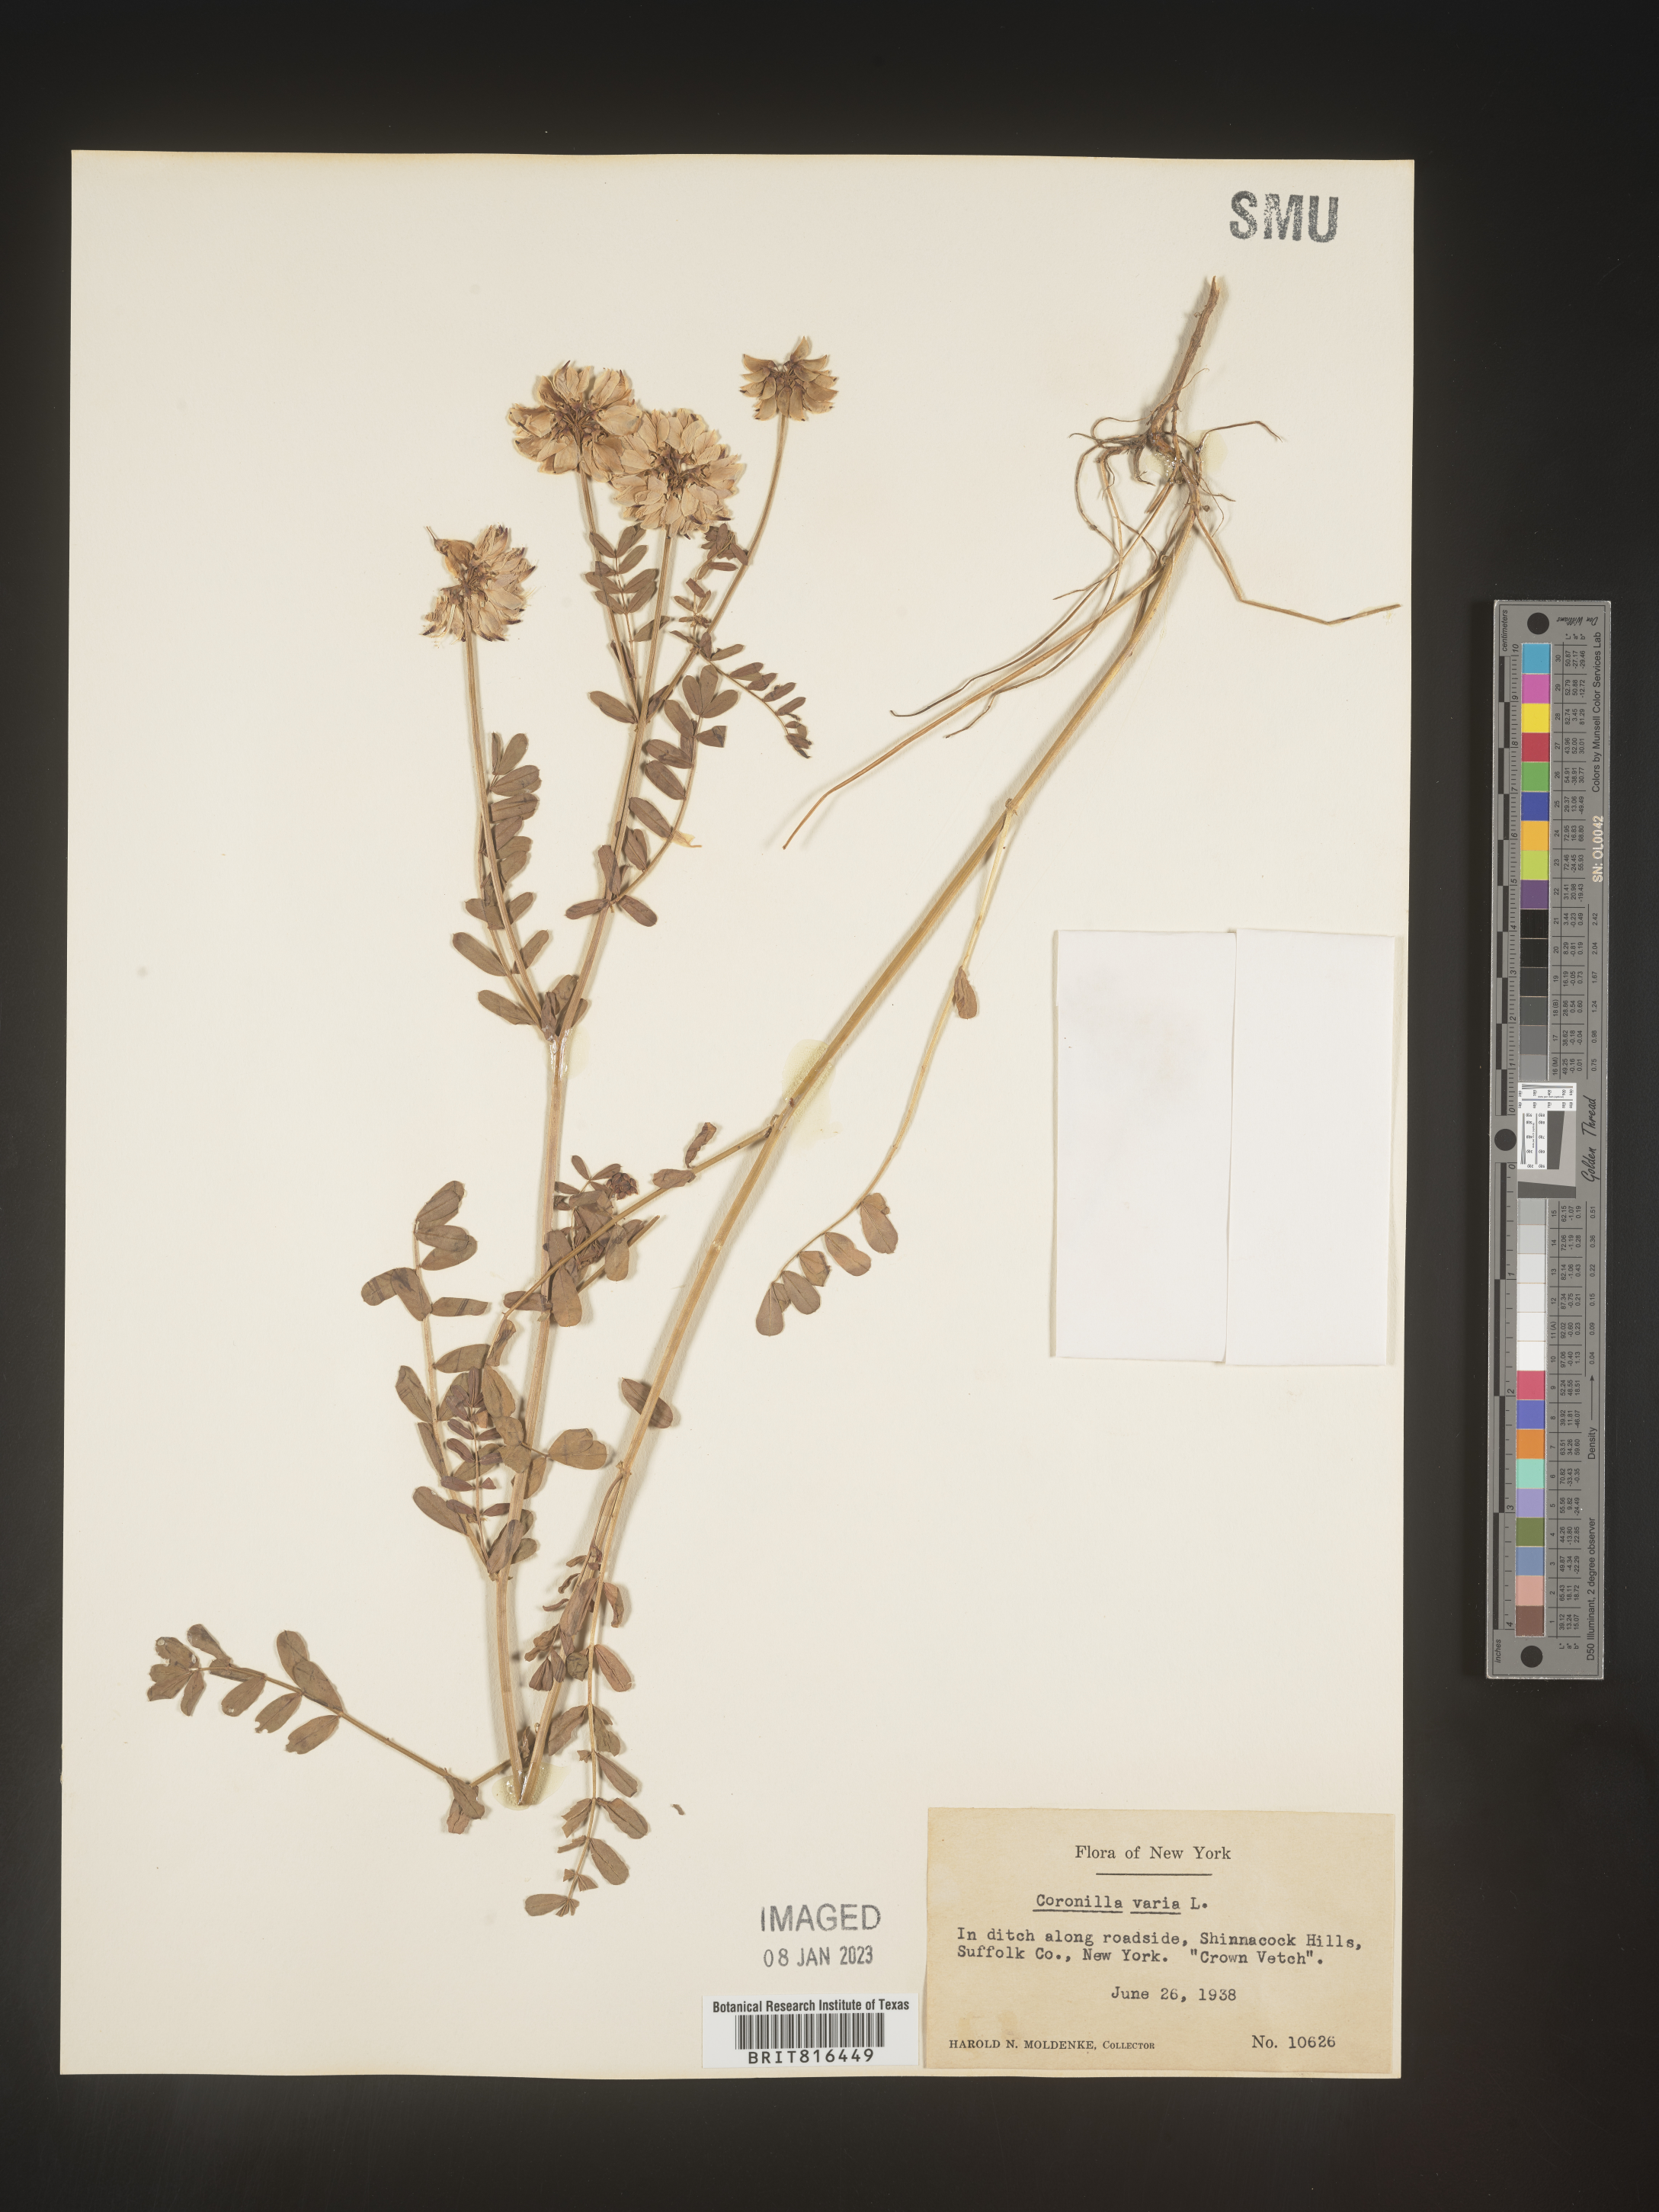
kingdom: Plantae
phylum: Tracheophyta
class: Magnoliopsida
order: Fabales
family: Fabaceae
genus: Coronilla
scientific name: Coronilla
